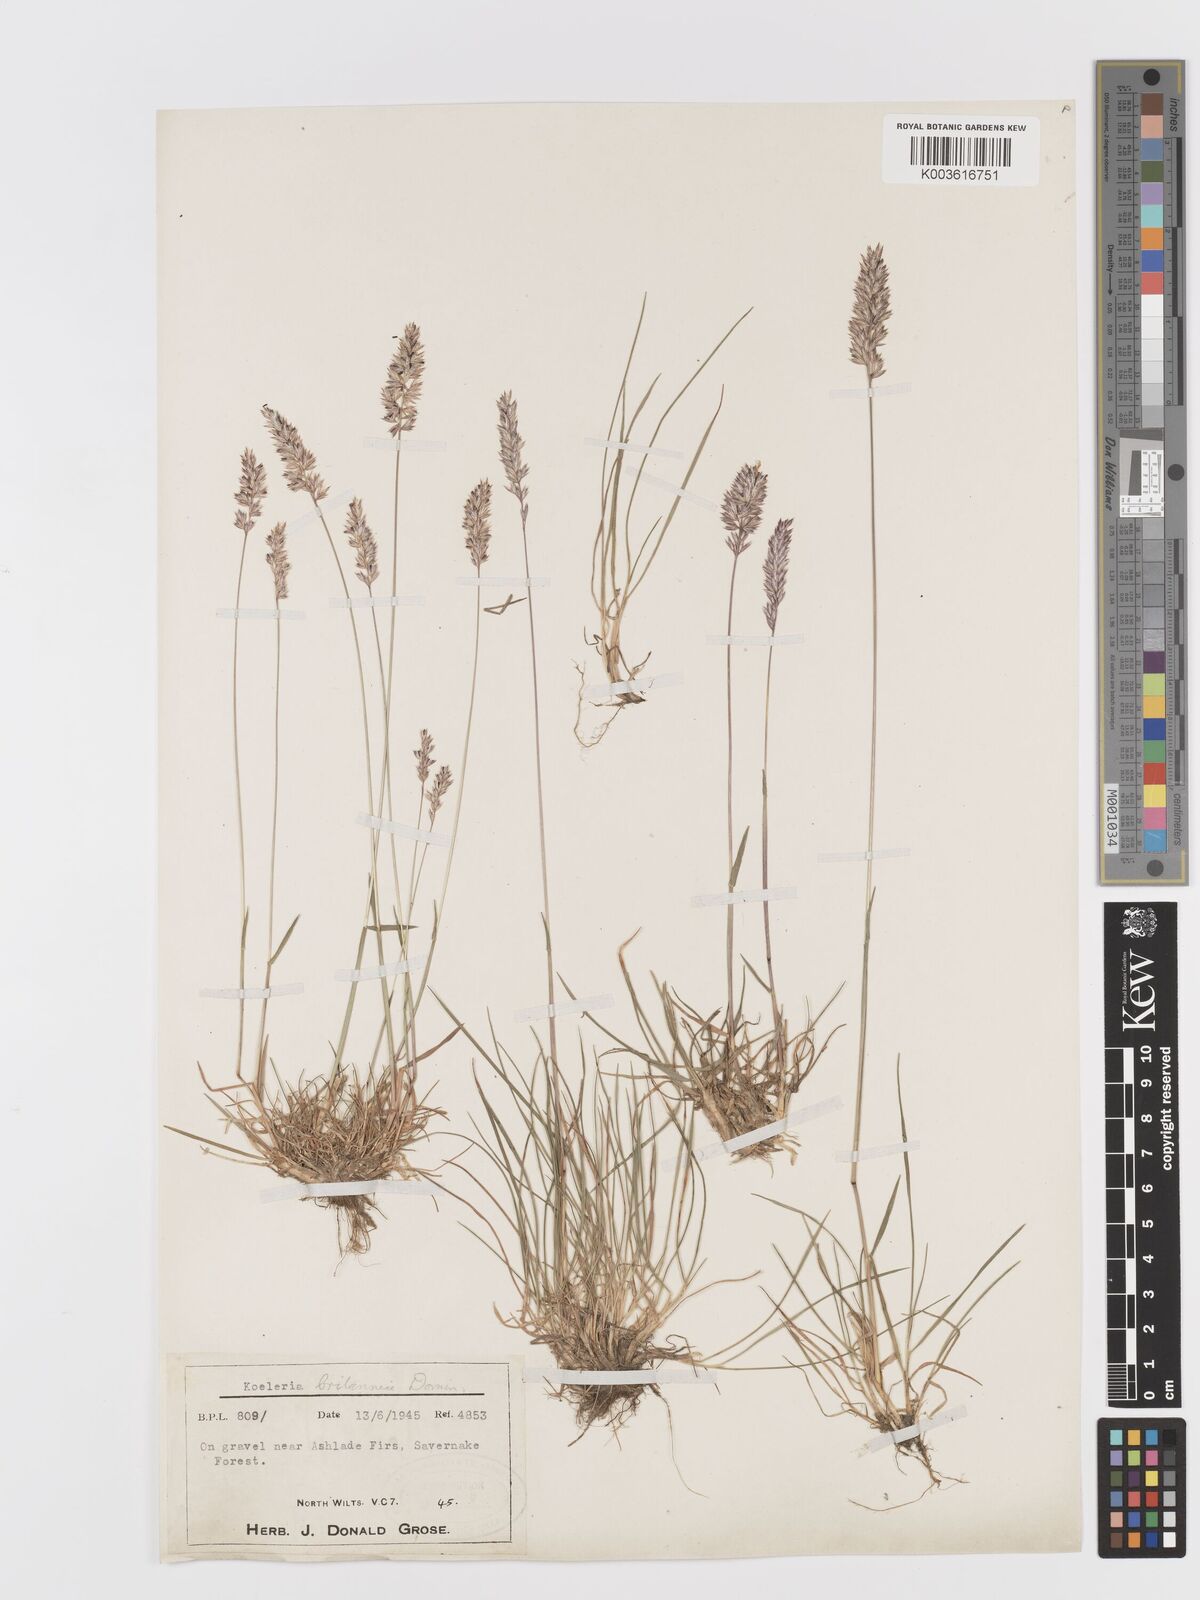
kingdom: Plantae
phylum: Tracheophyta
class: Liliopsida
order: Poales
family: Poaceae
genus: Koeleria
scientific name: Koeleria
